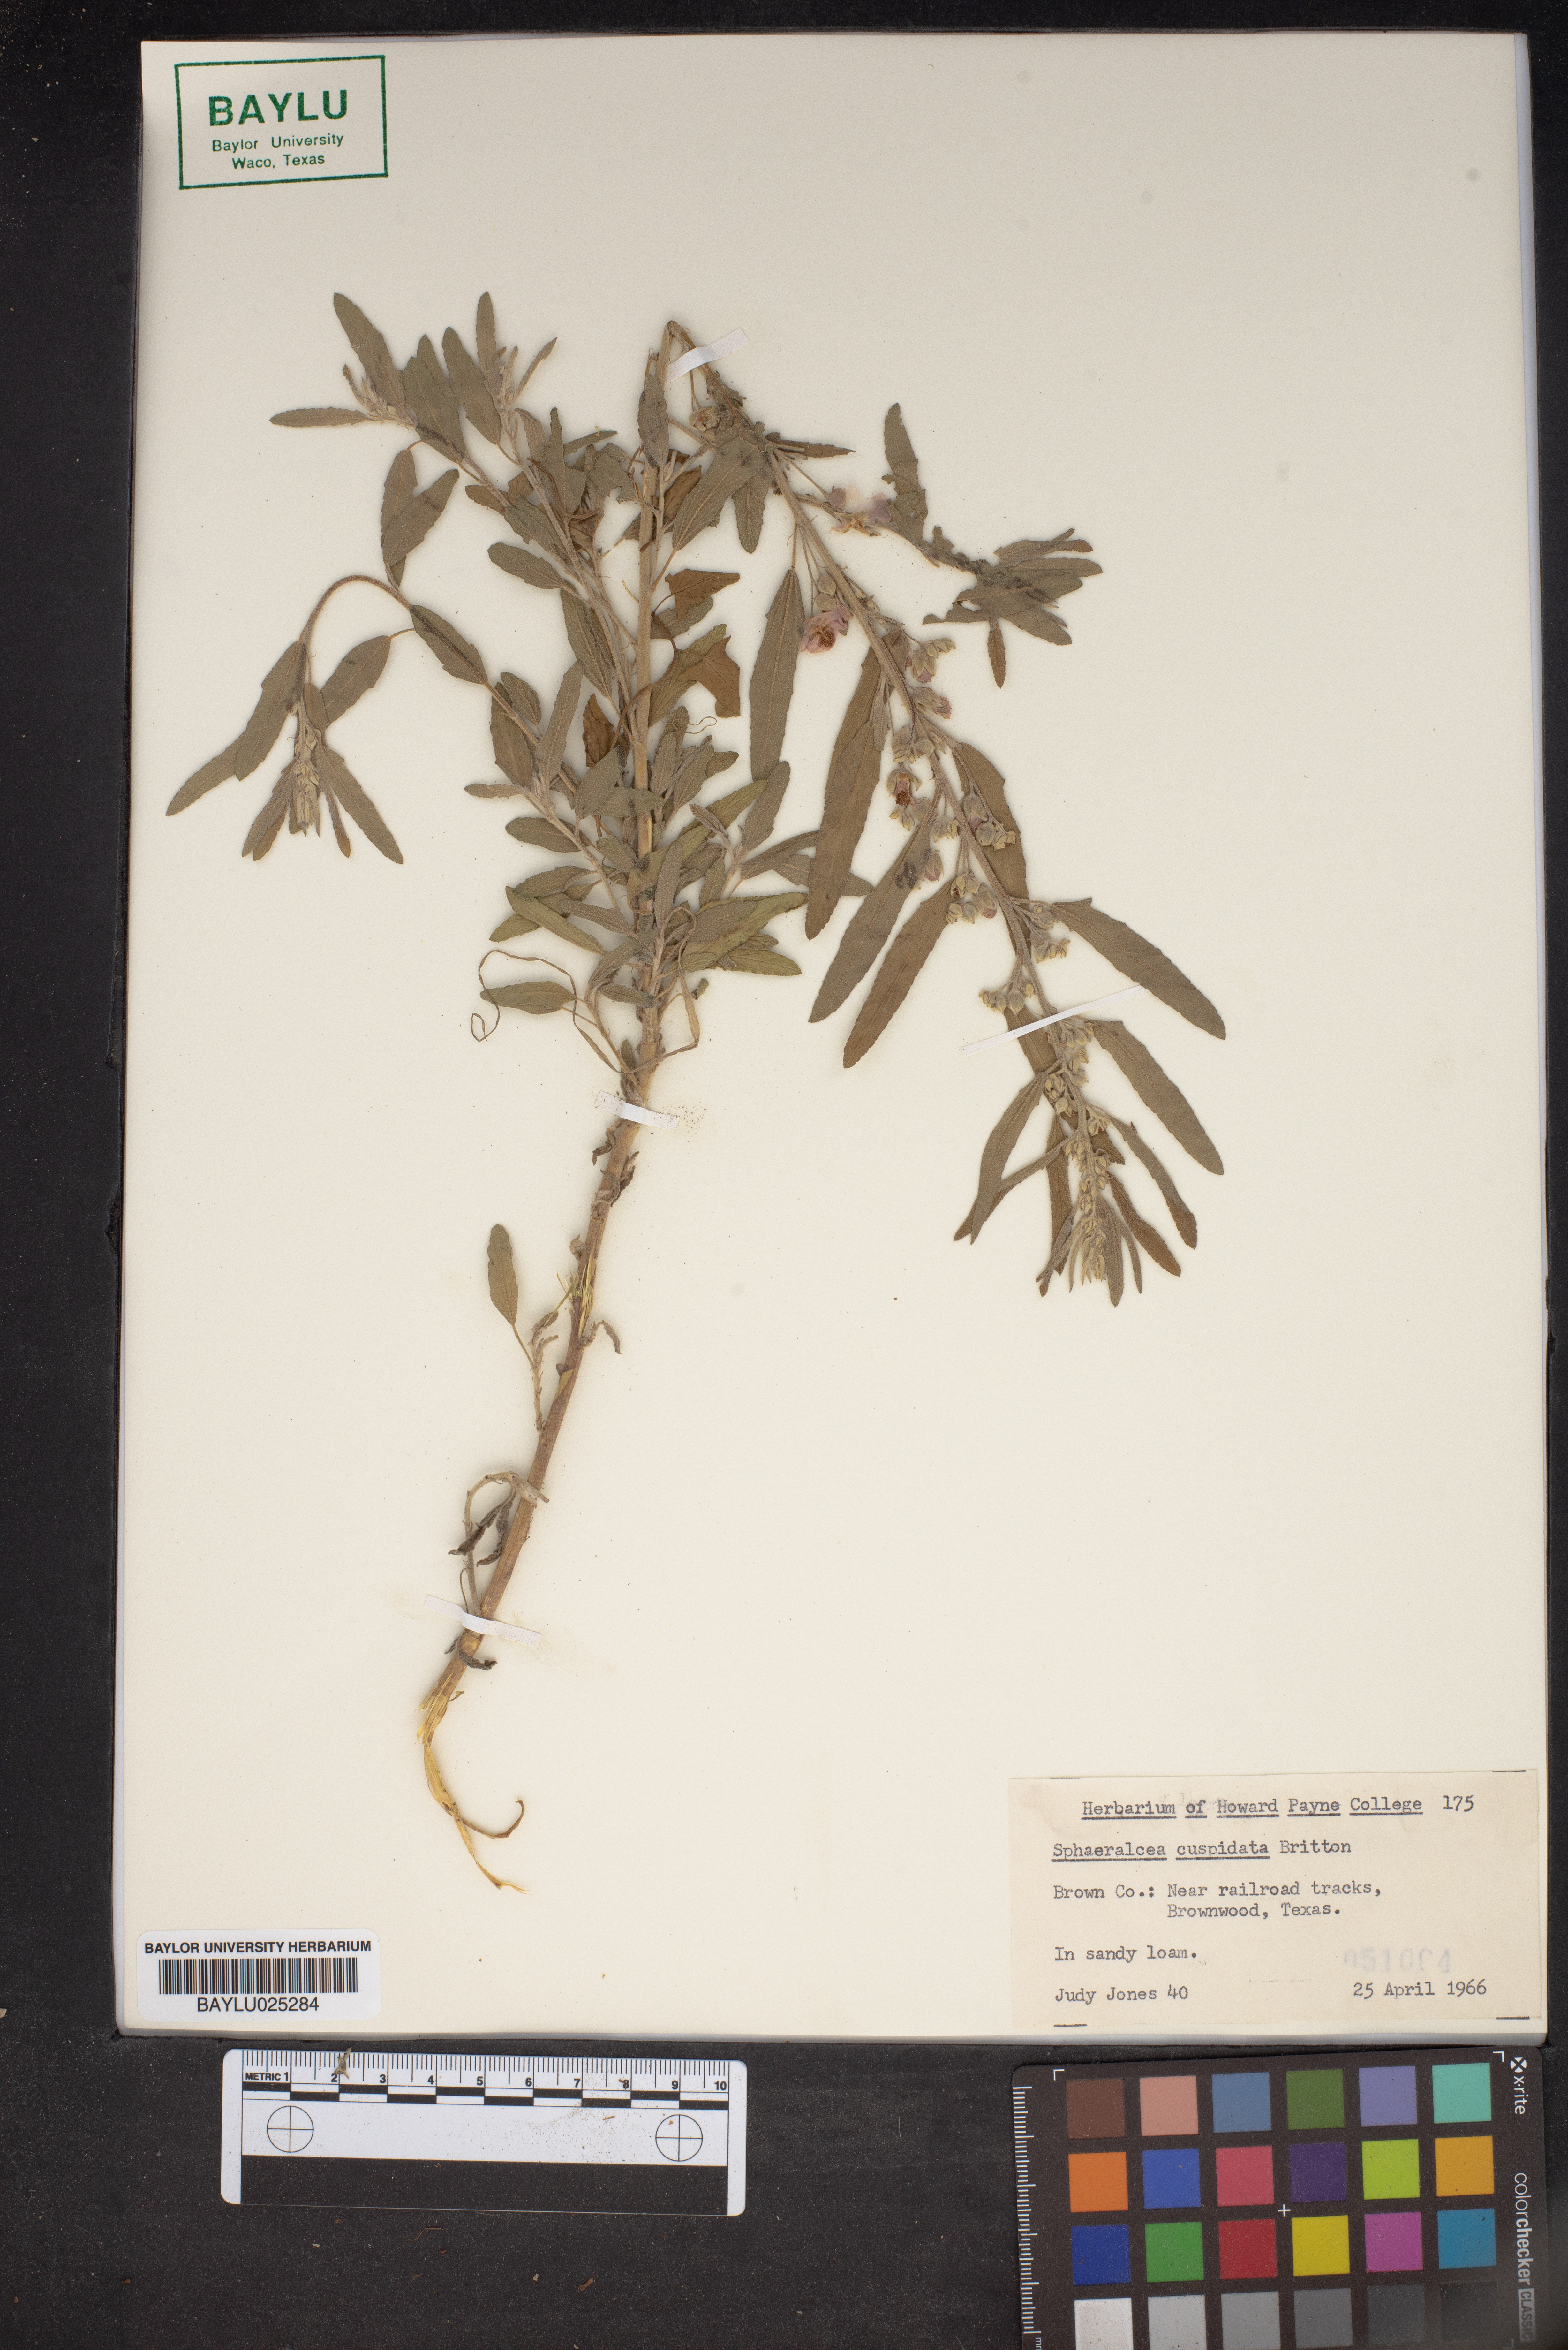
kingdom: Plantae
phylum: Tracheophyta
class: Magnoliopsida
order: Malvales
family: Malvaceae
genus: Sphaeralcea
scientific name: Sphaeralcea angustifolia
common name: Copper globe-mallow
